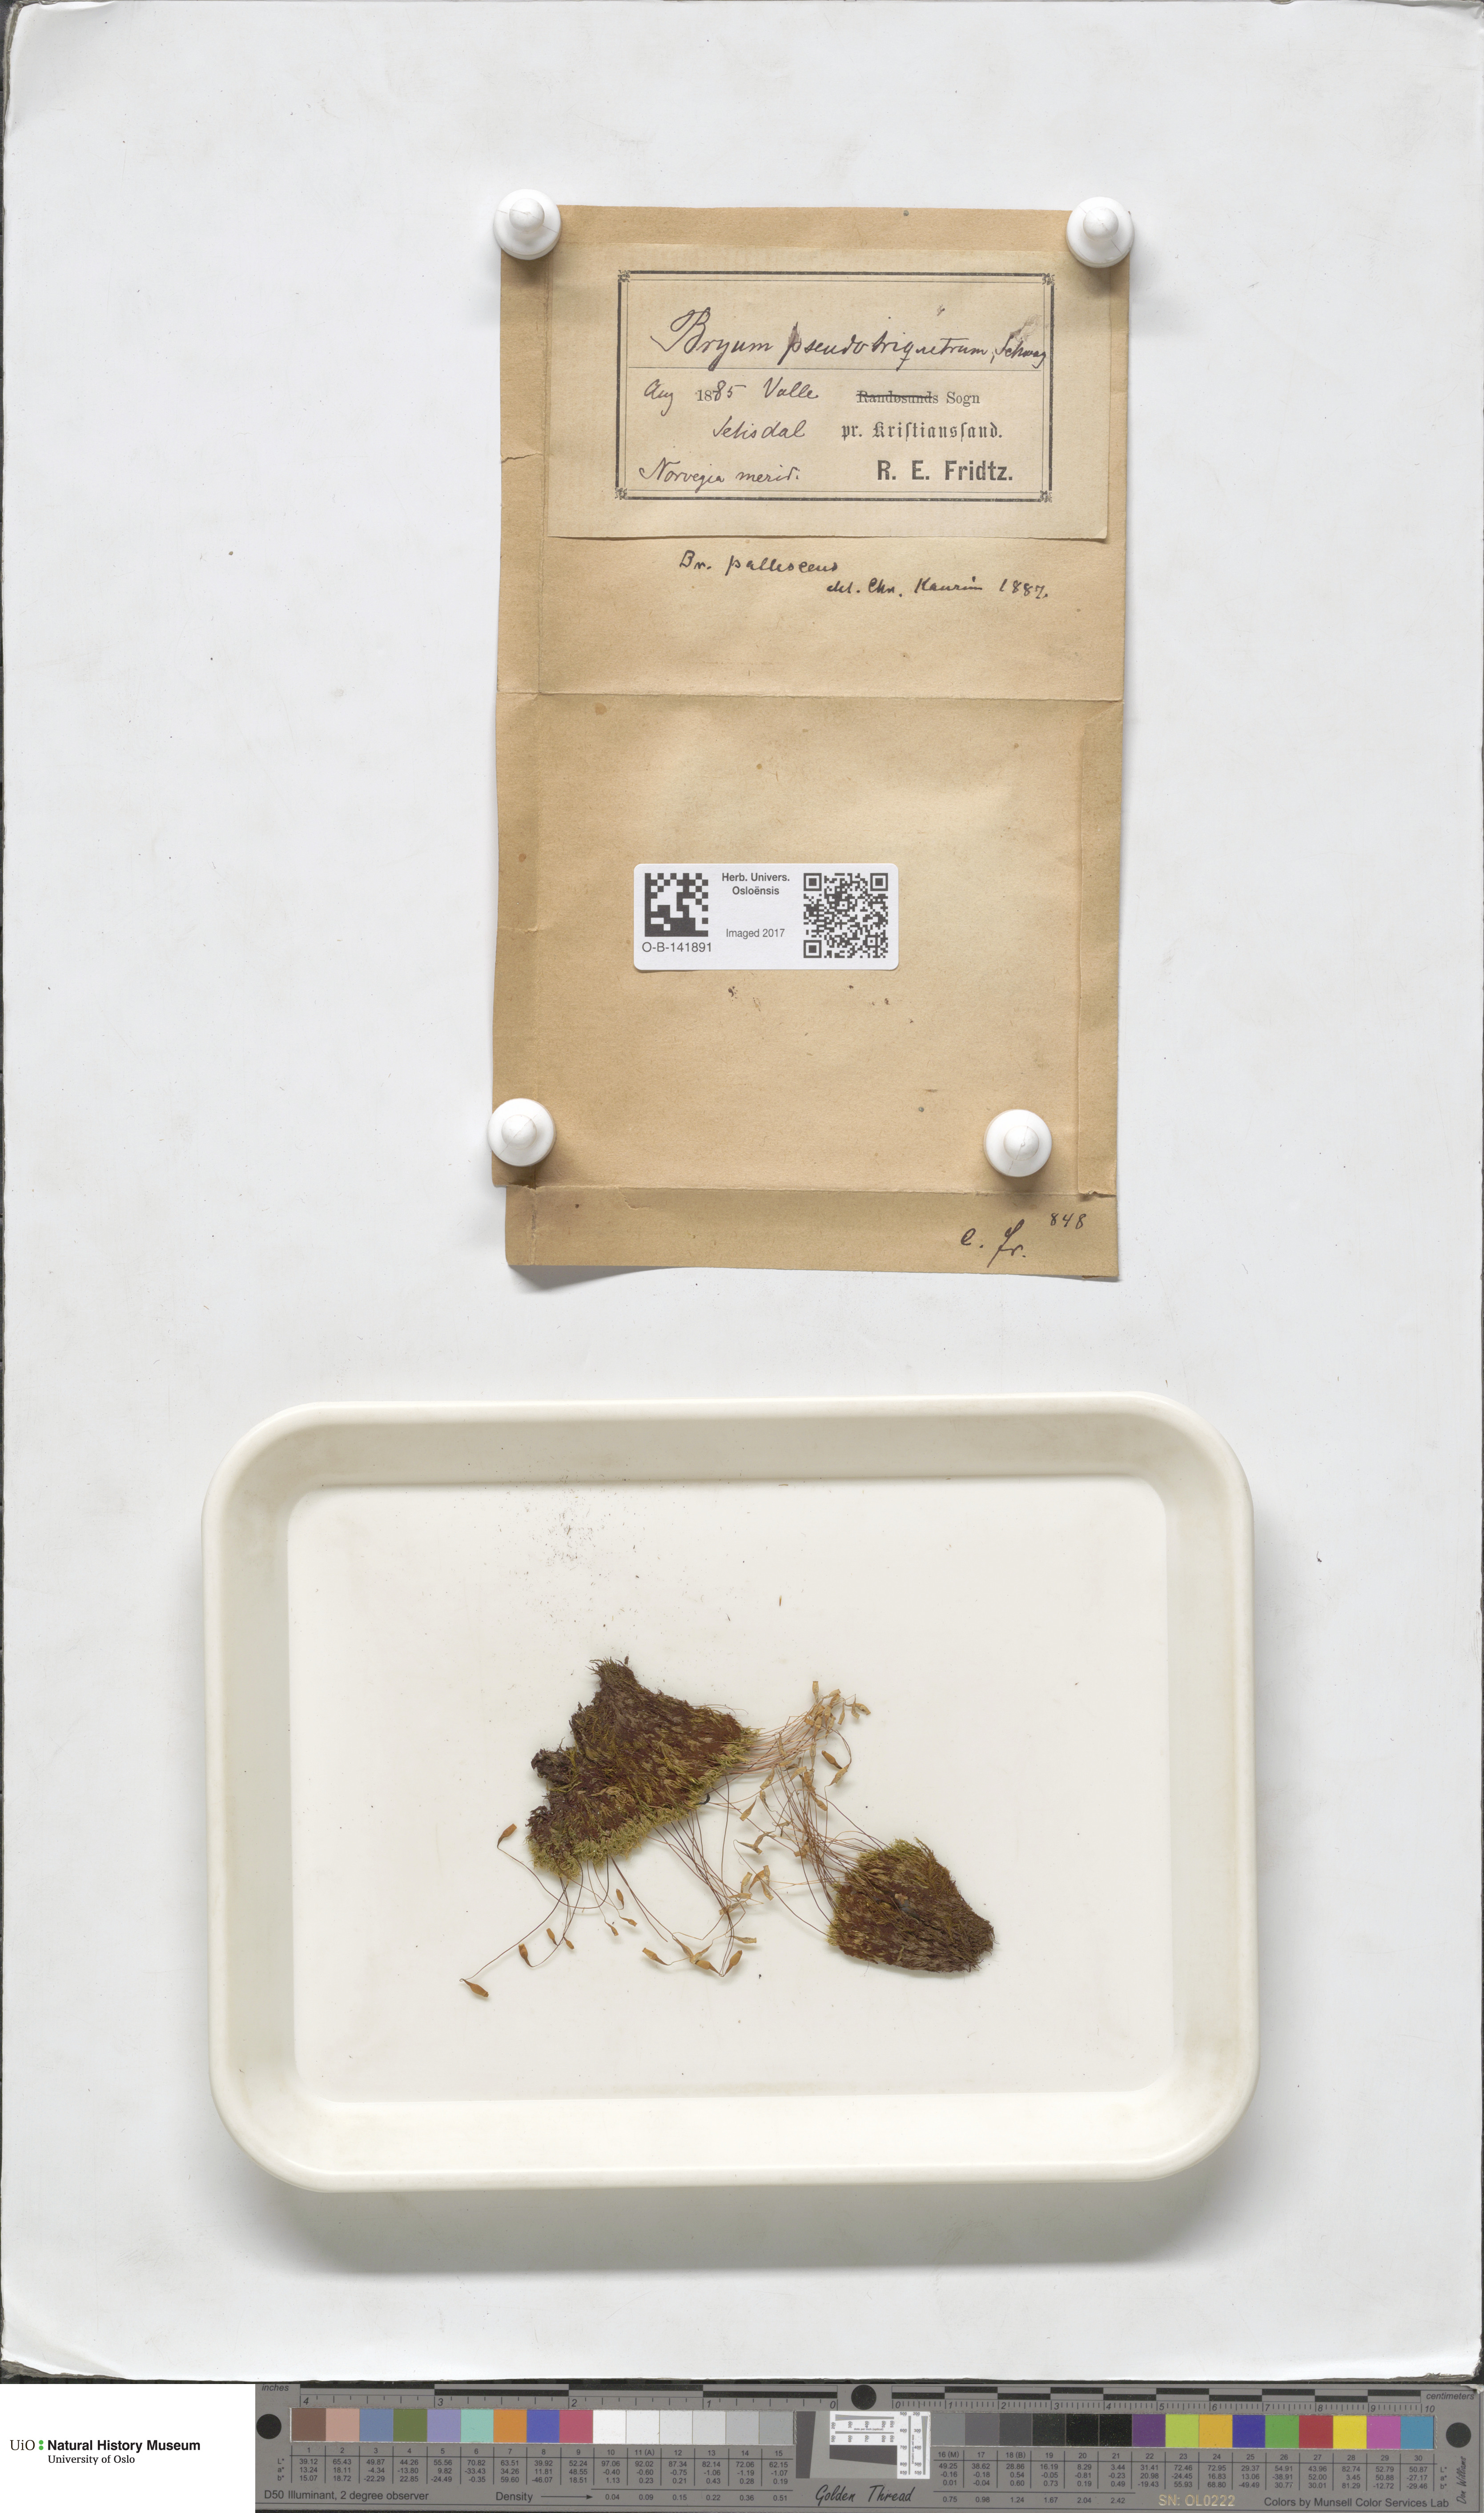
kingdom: Plantae
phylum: Bryophyta
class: Bryopsida
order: Bryales
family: Bryaceae
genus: Ptychostomum
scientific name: Ptychostomum pseudotriquetrum
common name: Long-leaved thread moss
